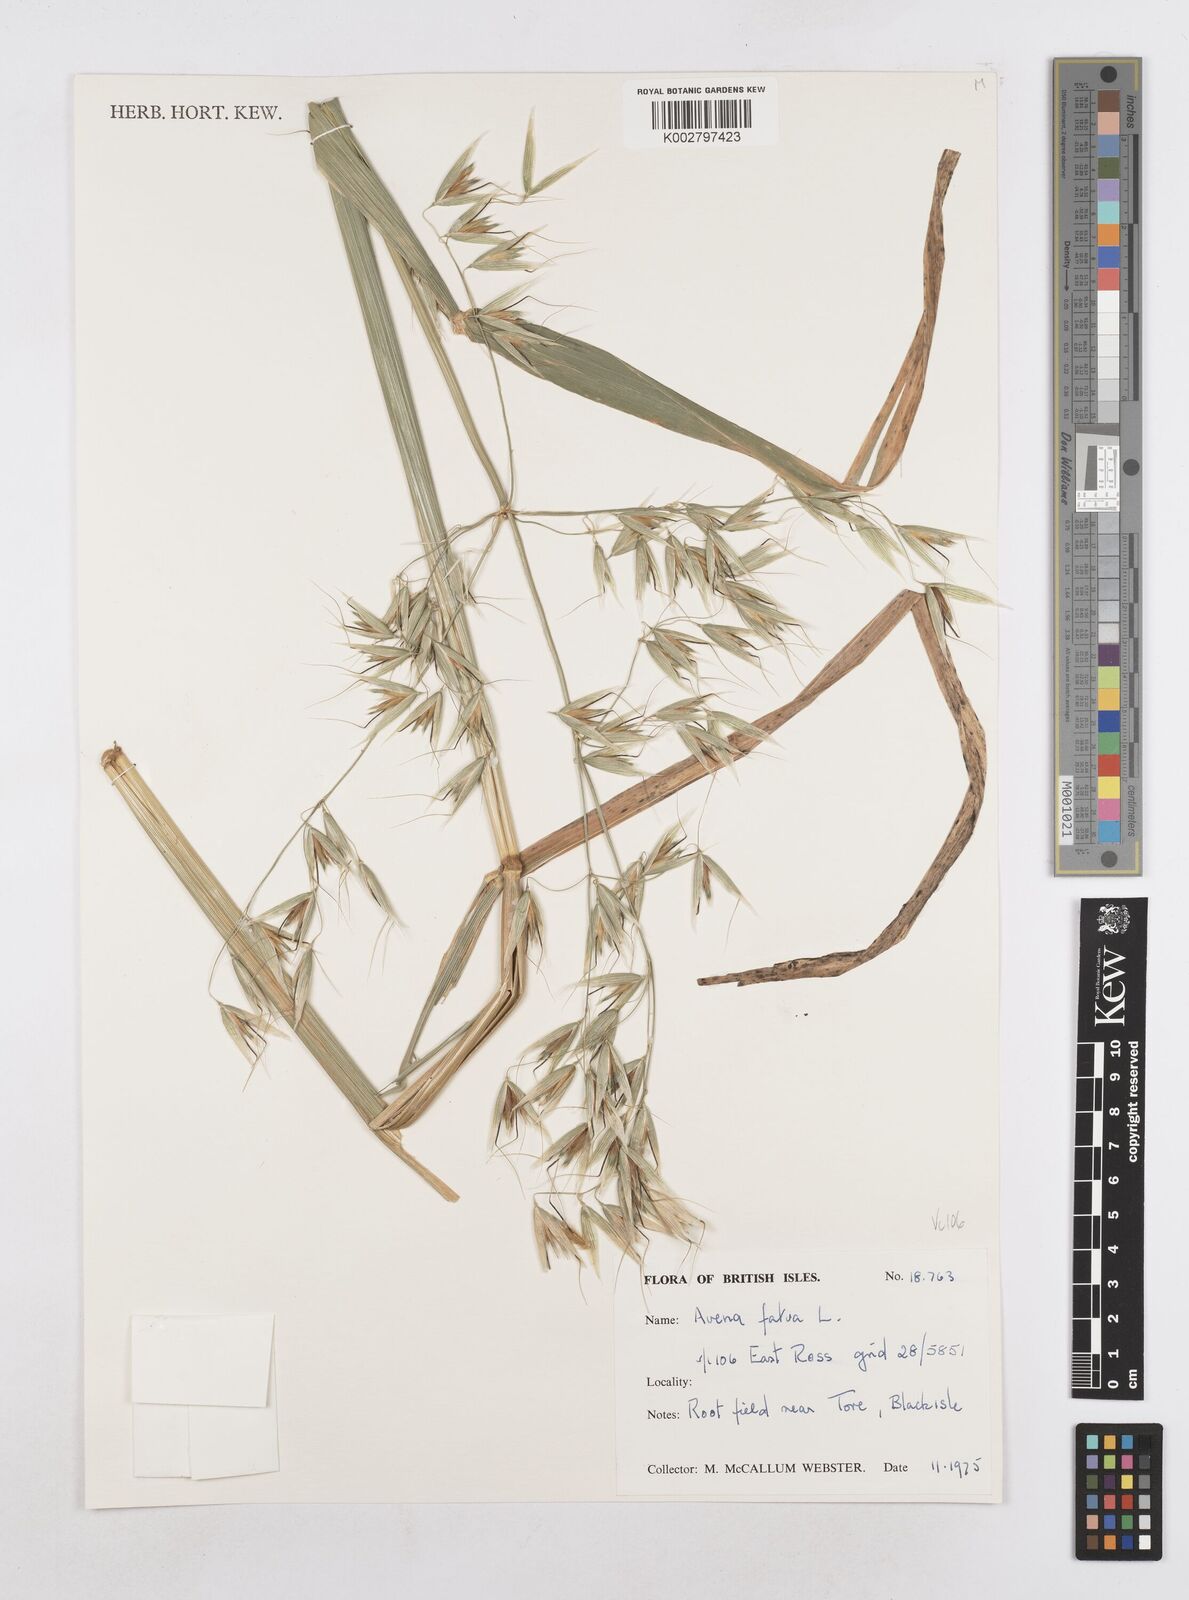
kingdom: Plantae
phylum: Tracheophyta
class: Liliopsida
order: Poales
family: Poaceae
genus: Avena
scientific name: Avena fatua
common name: Wild oat
